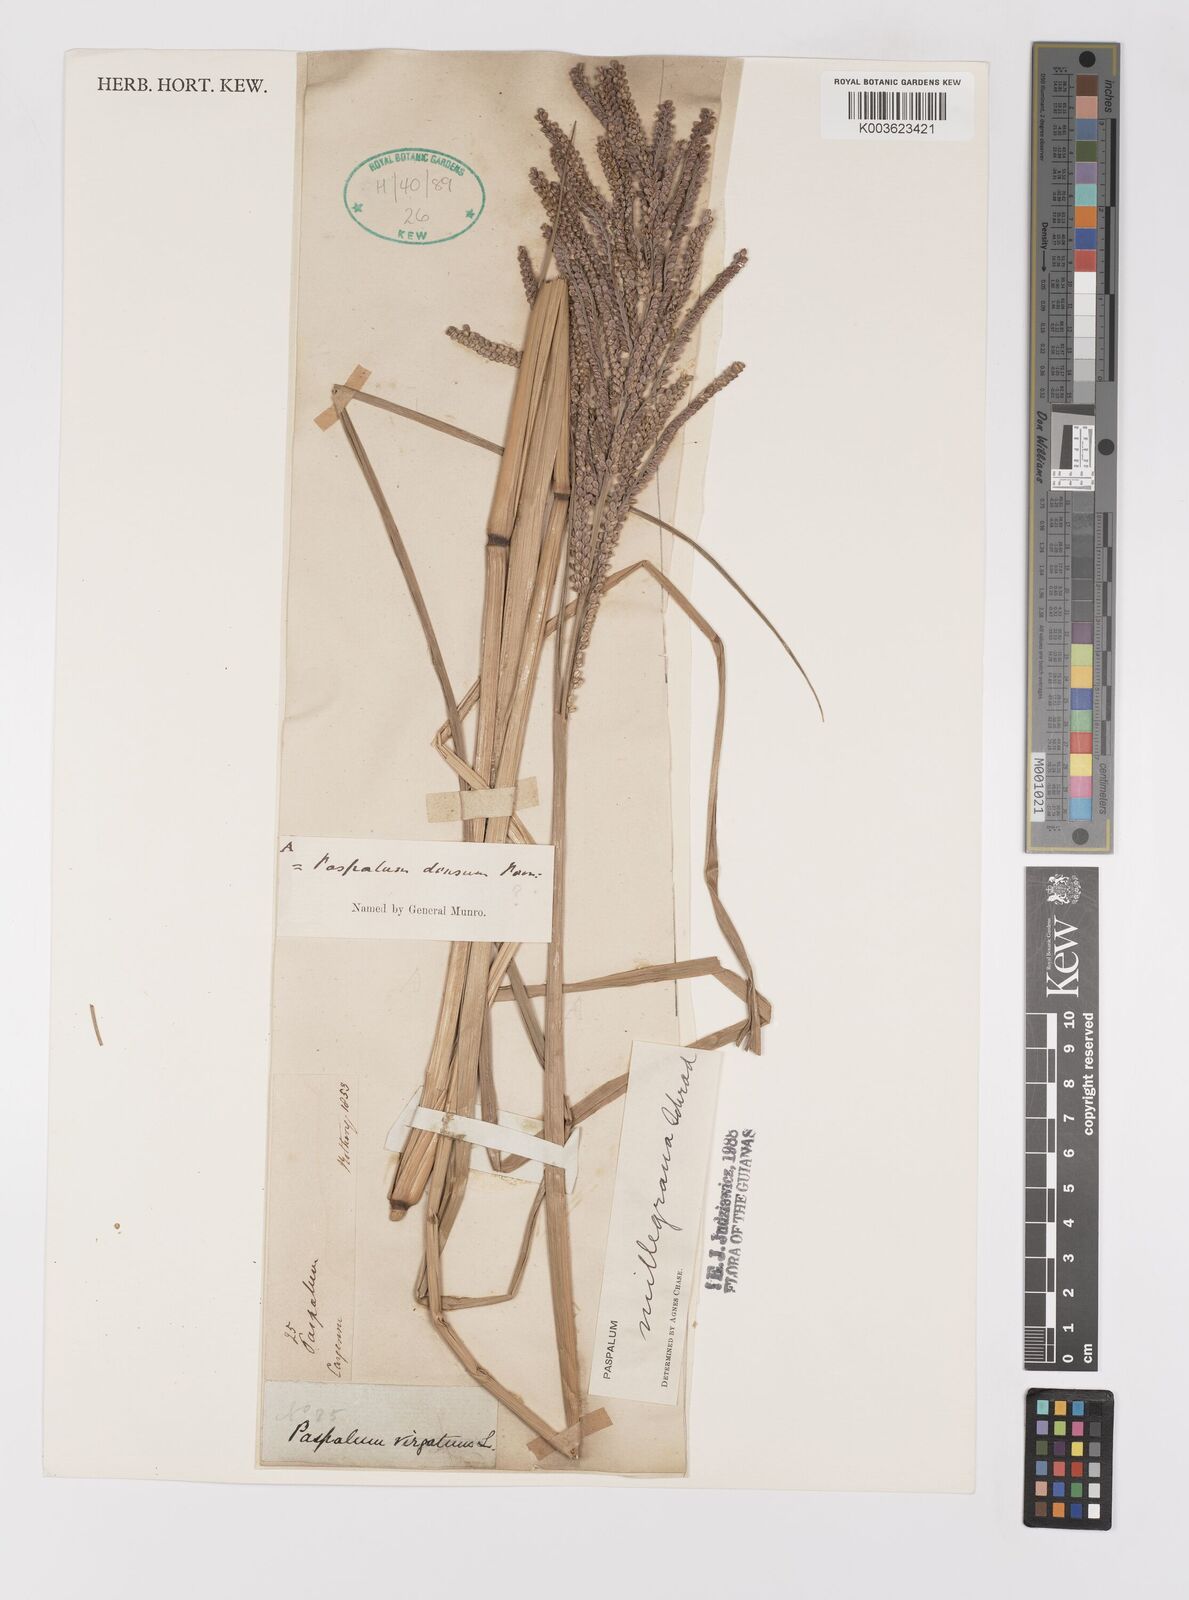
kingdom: Plantae
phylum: Tracheophyta
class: Liliopsida
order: Poales
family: Poaceae
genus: Paspalum
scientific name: Paspalum millegranum
